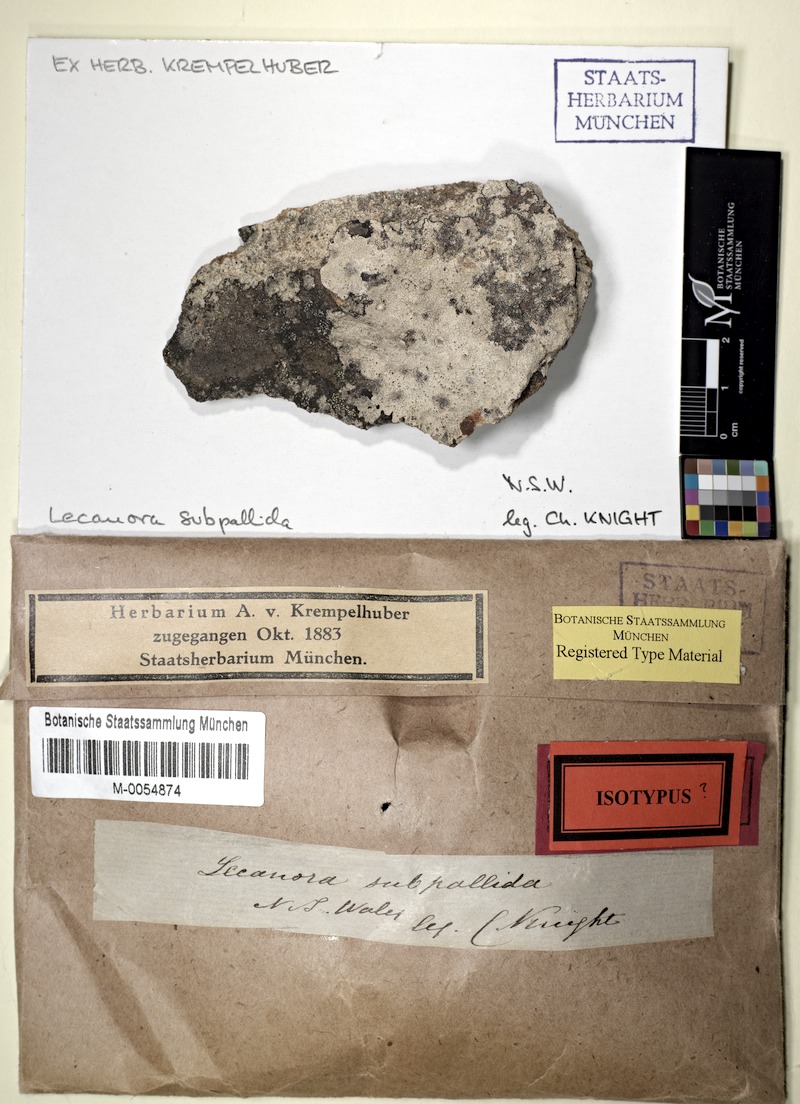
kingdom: Fungi
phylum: Ascomycota
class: Lecanoromycetes
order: Lecanorales
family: Lecanoraceae
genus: Lecanora
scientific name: Lecanora farinacea
